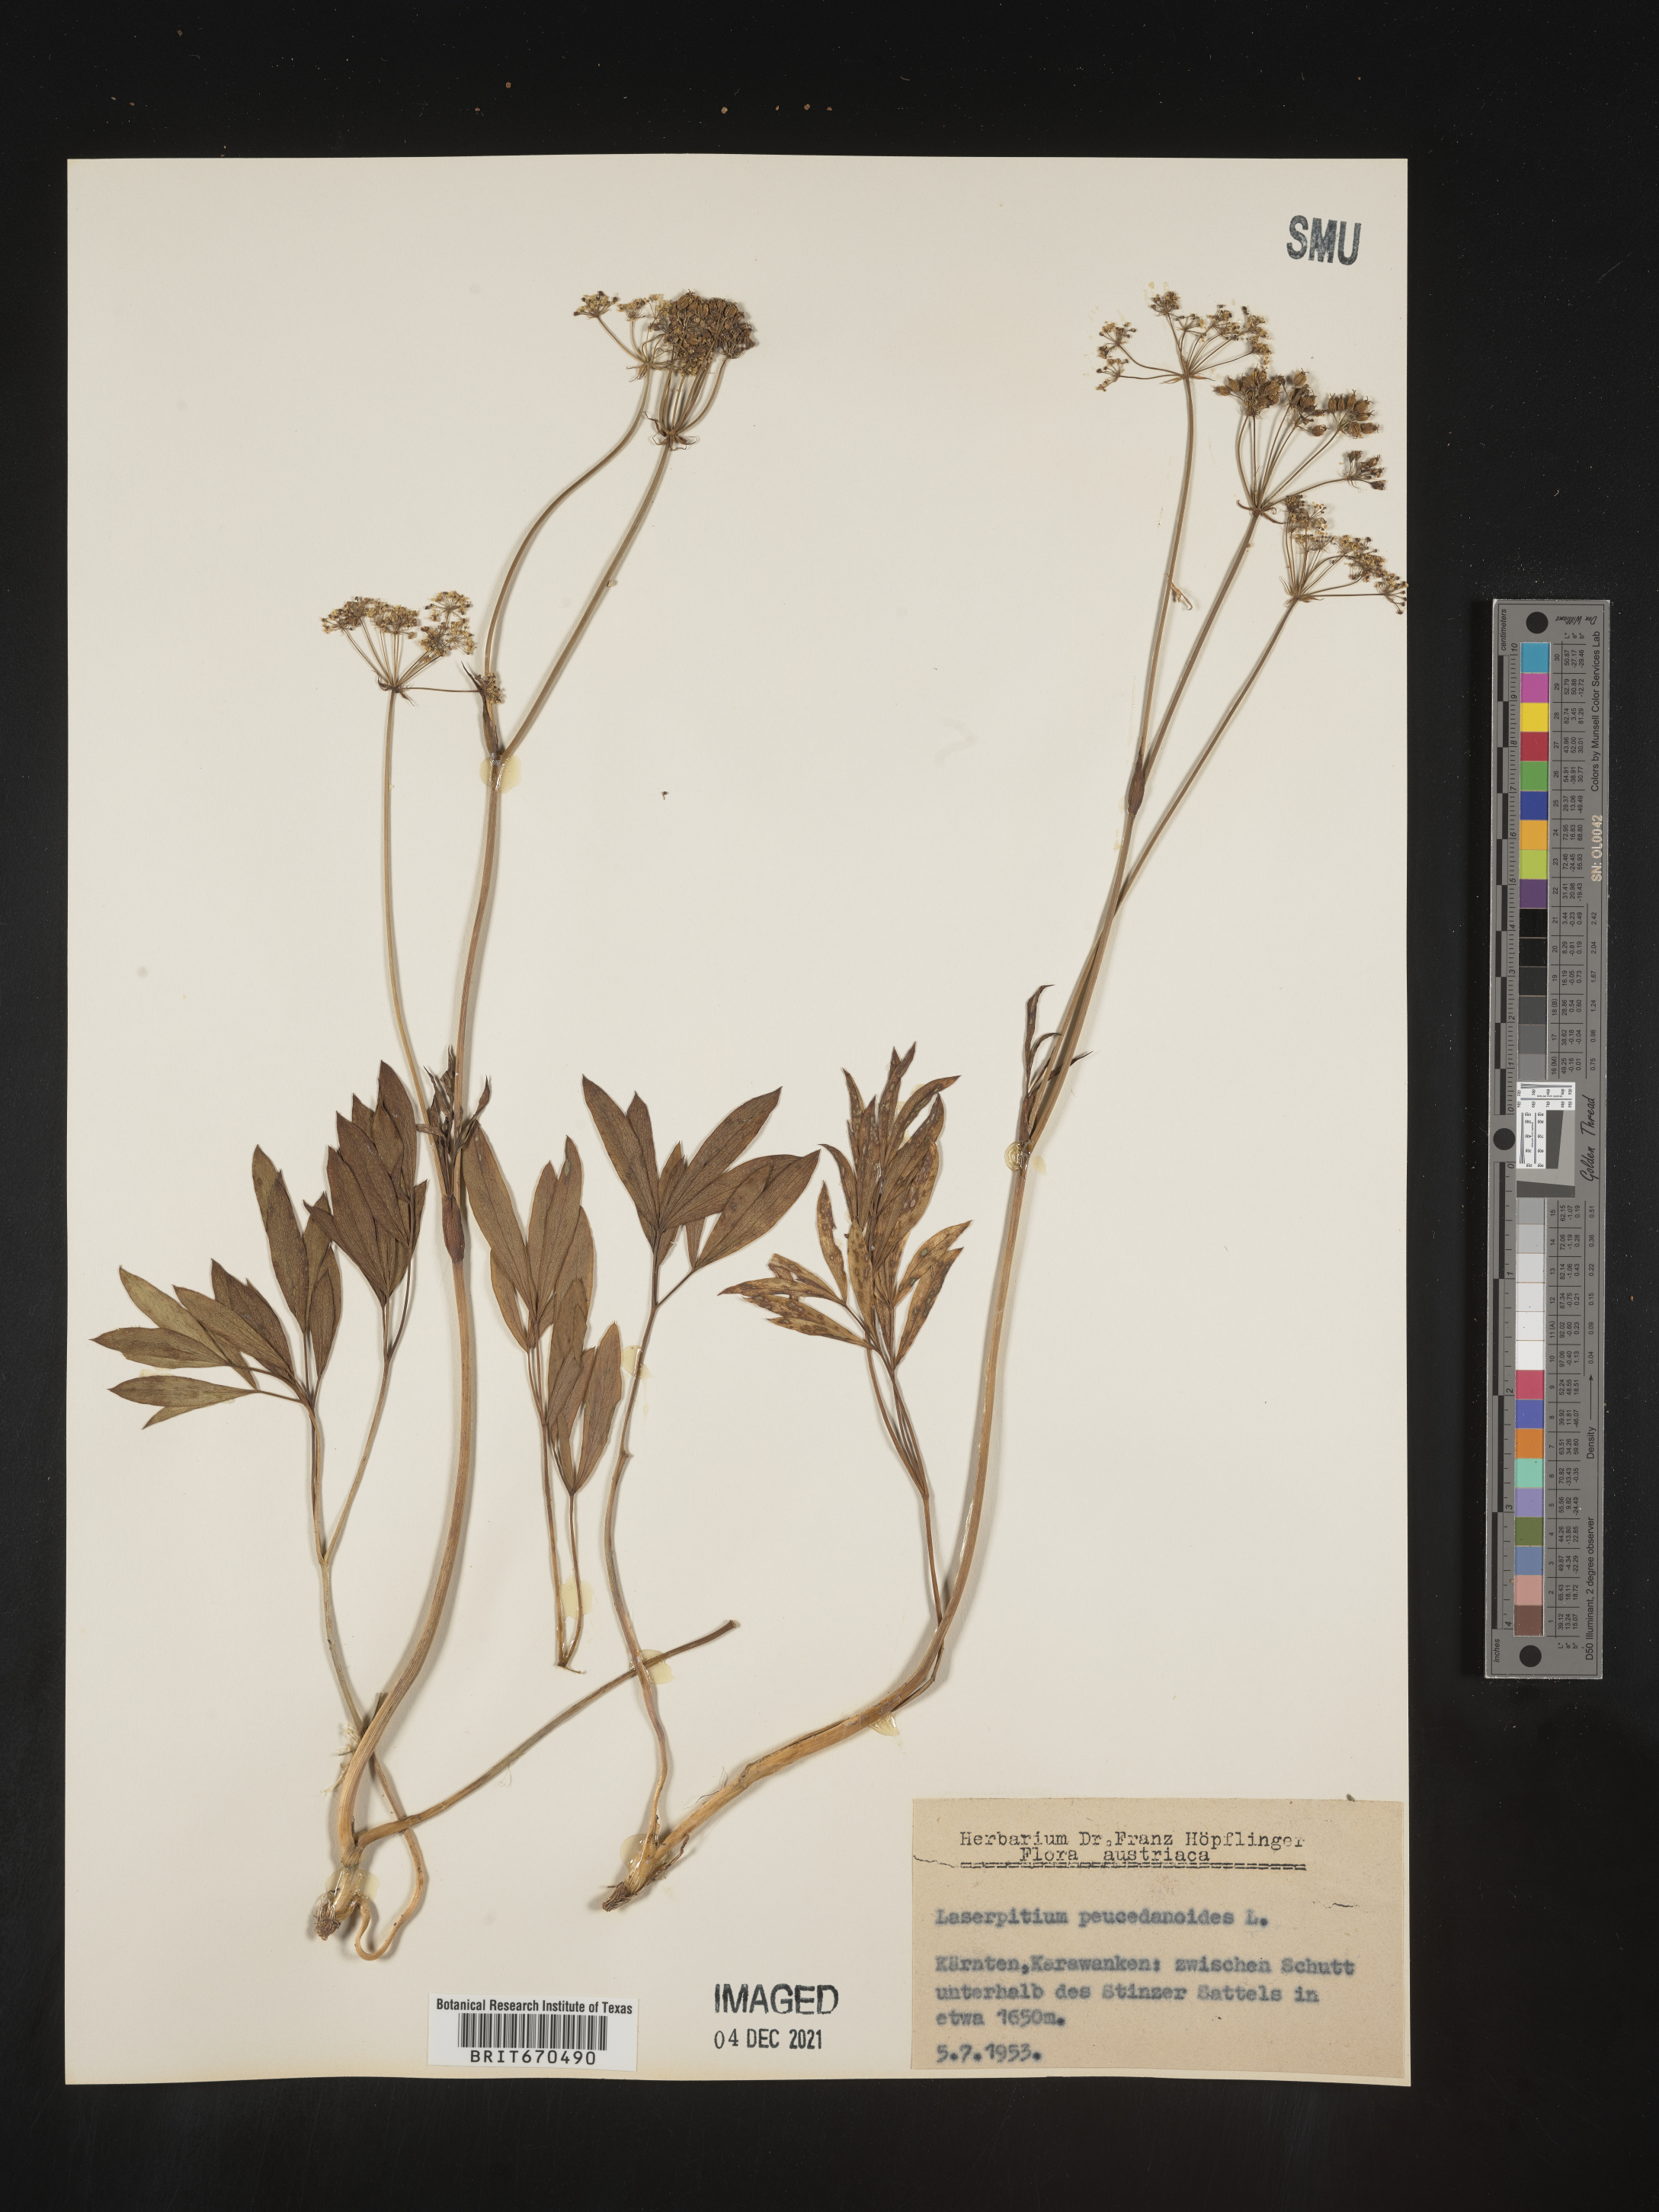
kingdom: Plantae
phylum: Tracheophyta
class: Magnoliopsida
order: Apiales
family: Apiaceae
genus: Laserpitium
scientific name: Laserpitium
